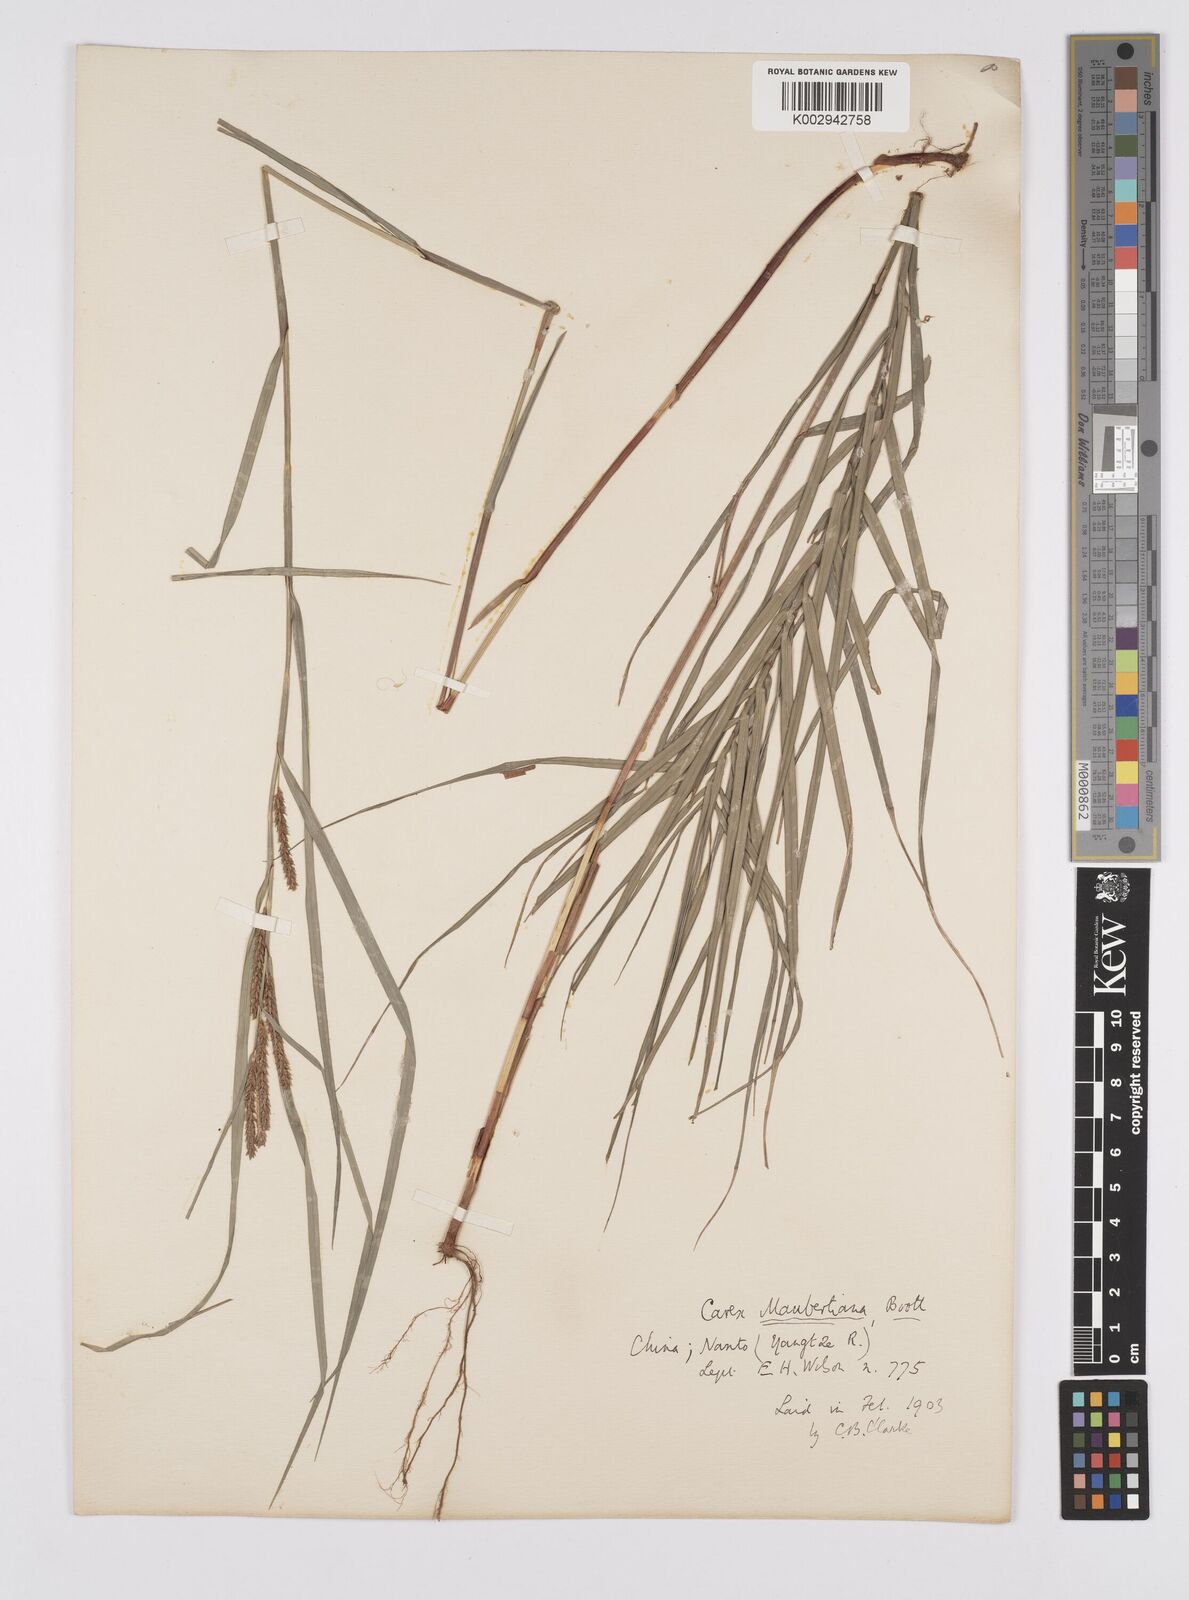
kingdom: Plantae
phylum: Tracheophyta
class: Liliopsida
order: Poales
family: Cyperaceae
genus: Carex
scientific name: Carex maubertiana
